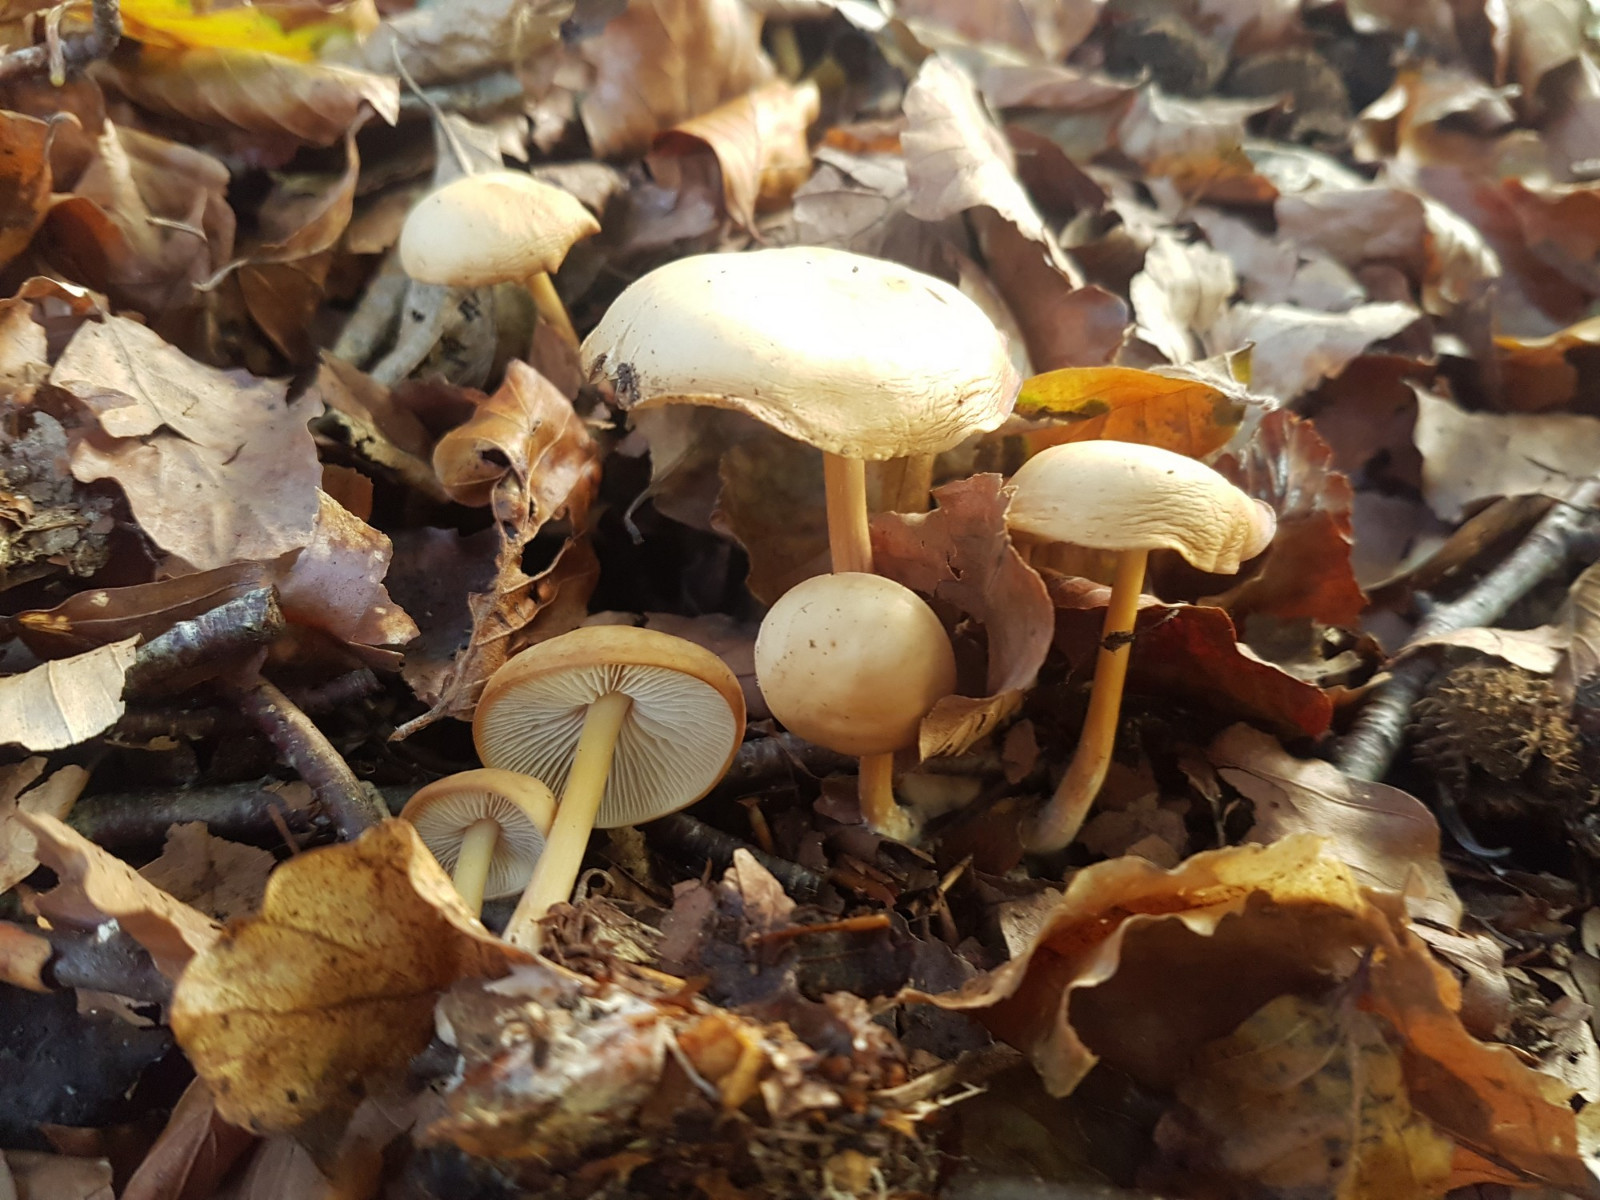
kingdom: Fungi
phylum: Basidiomycota
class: Agaricomycetes
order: Agaricales
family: Omphalotaceae
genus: Gymnopus
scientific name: Gymnopus aquosus
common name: bleg fladhat
